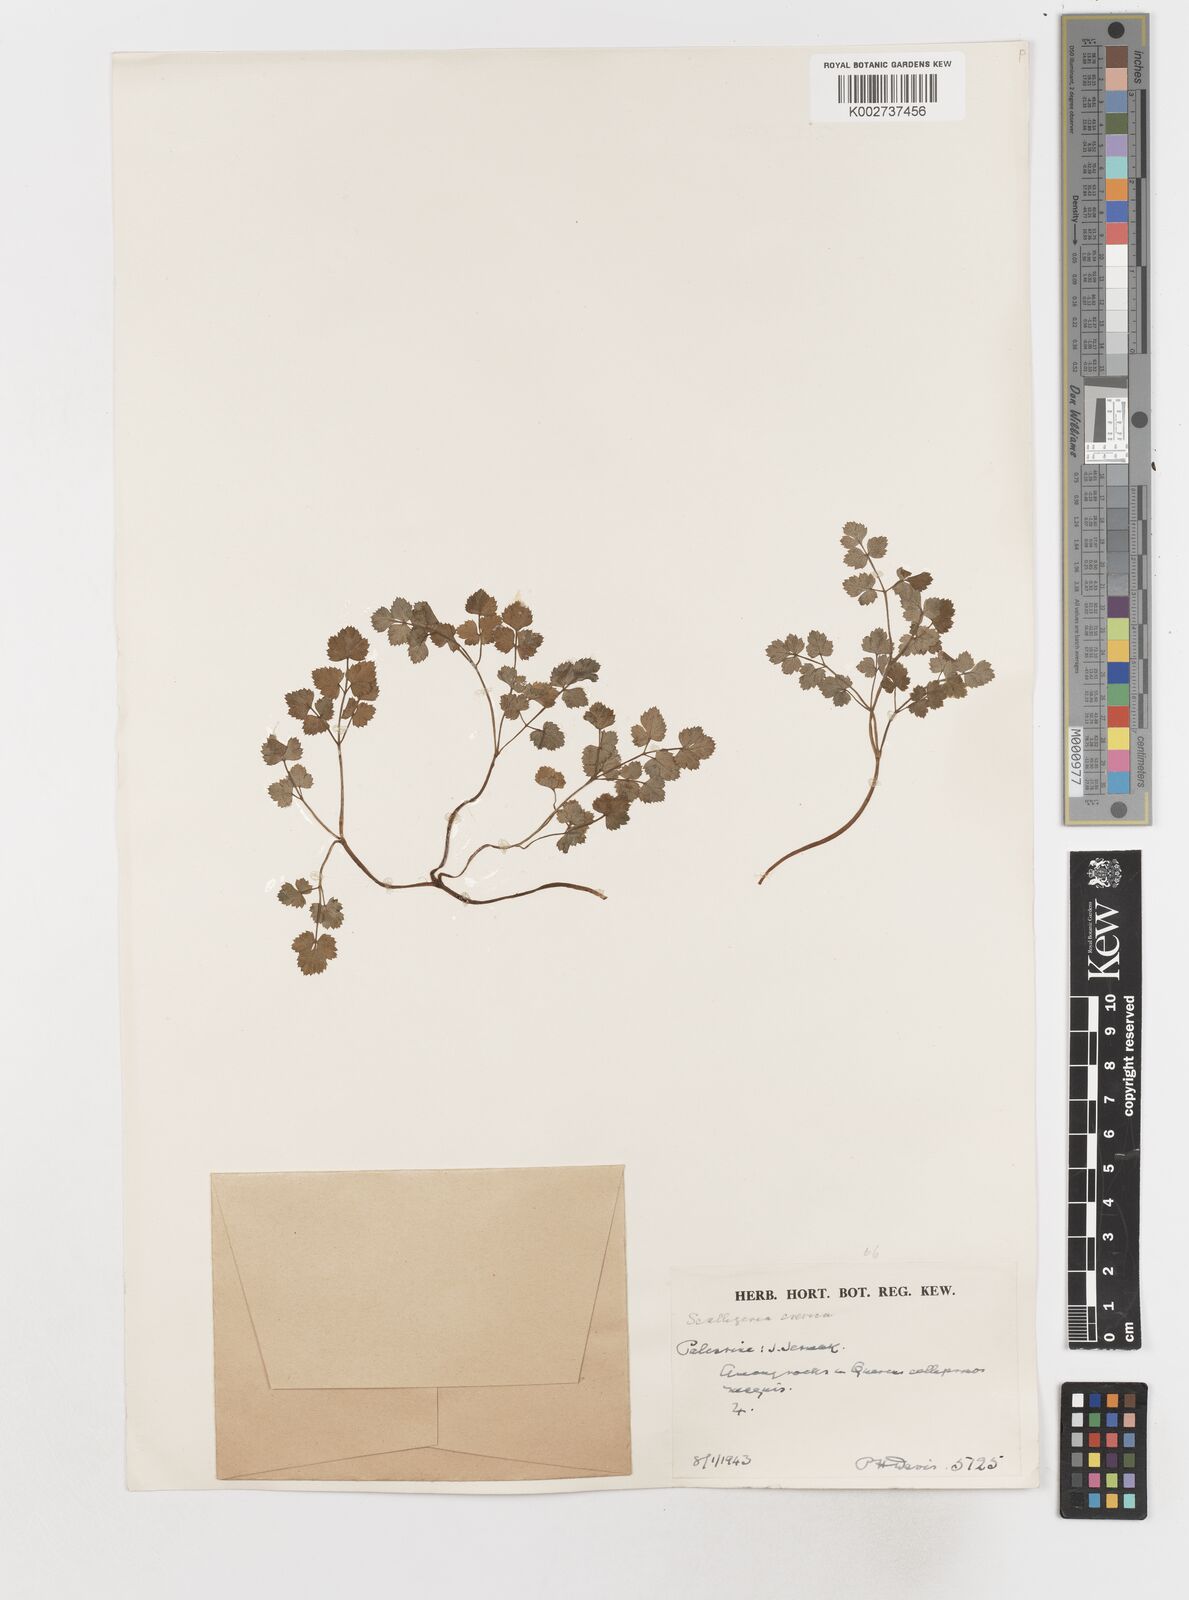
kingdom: Plantae
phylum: Tracheophyta
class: Magnoliopsida
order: Apiales
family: Apiaceae
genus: Scaligeria
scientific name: Scaligeria
